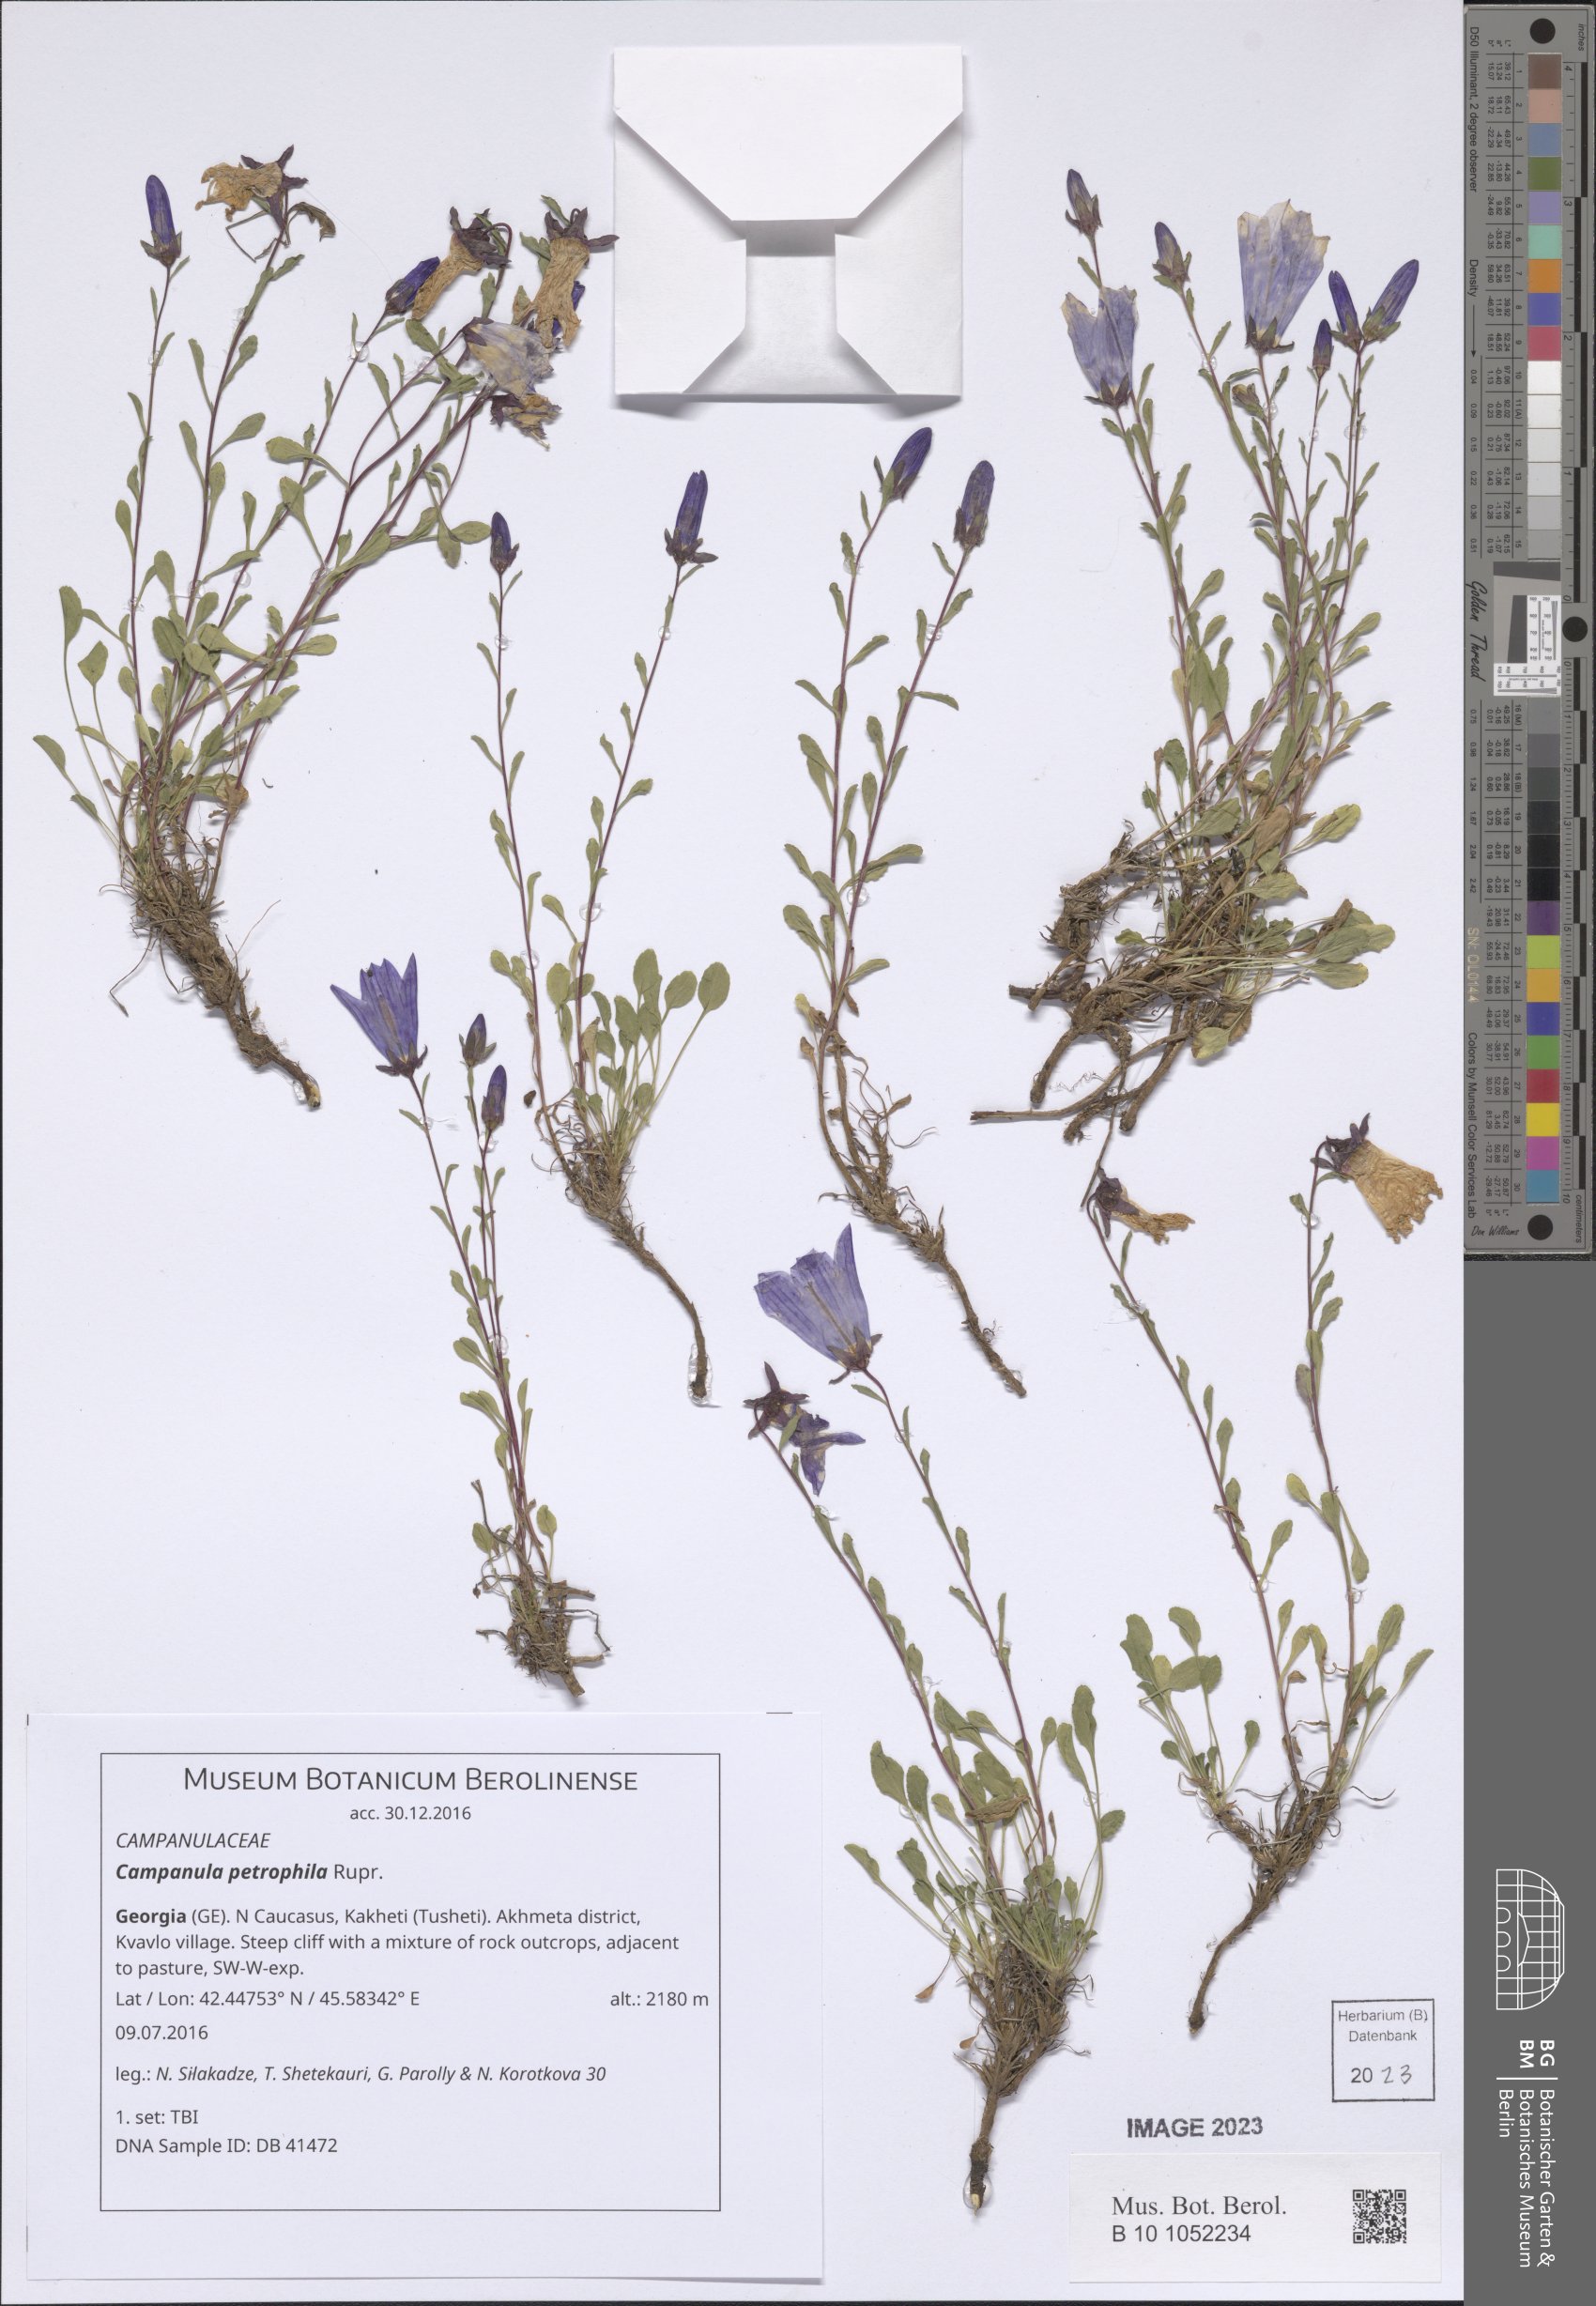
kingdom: Plantae
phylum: Tracheophyta
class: Magnoliopsida
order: Asterales
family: Campanulaceae
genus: Campanula
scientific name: Campanula petrophila
